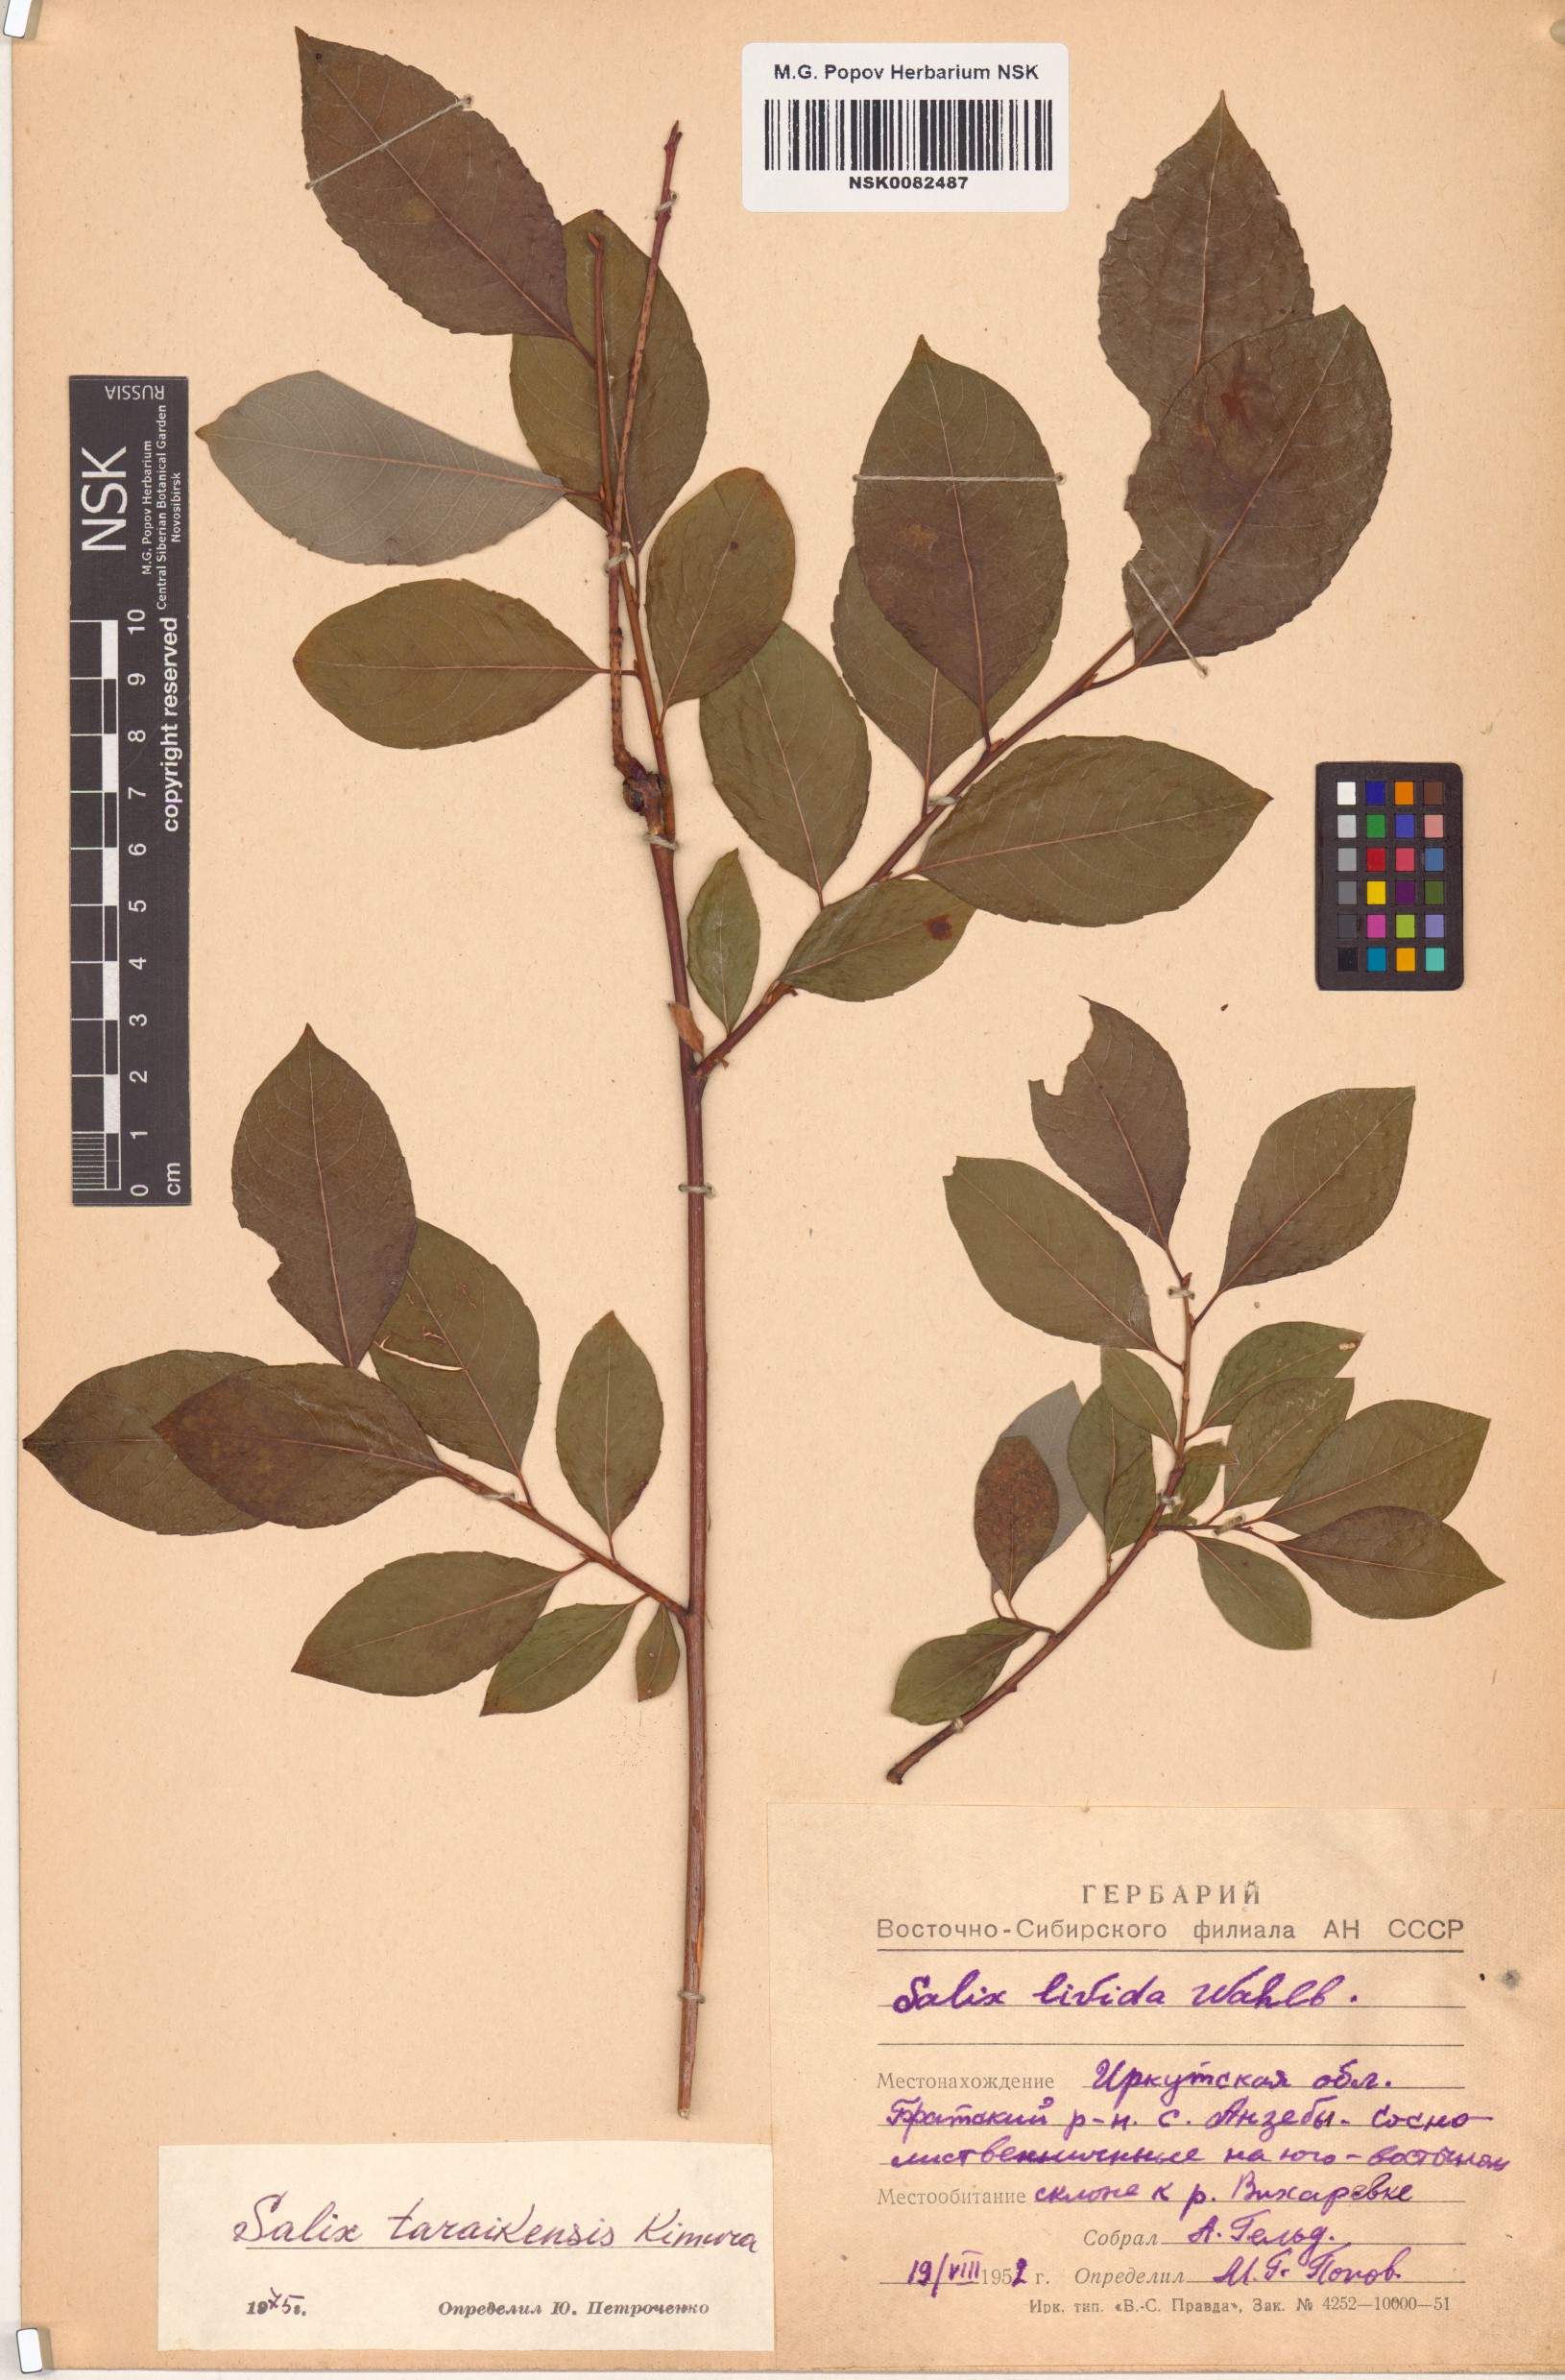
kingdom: Plantae
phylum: Tracheophyta
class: Magnoliopsida
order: Malpighiales
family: Salicaceae
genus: Salix
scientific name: Salix taraikensis
